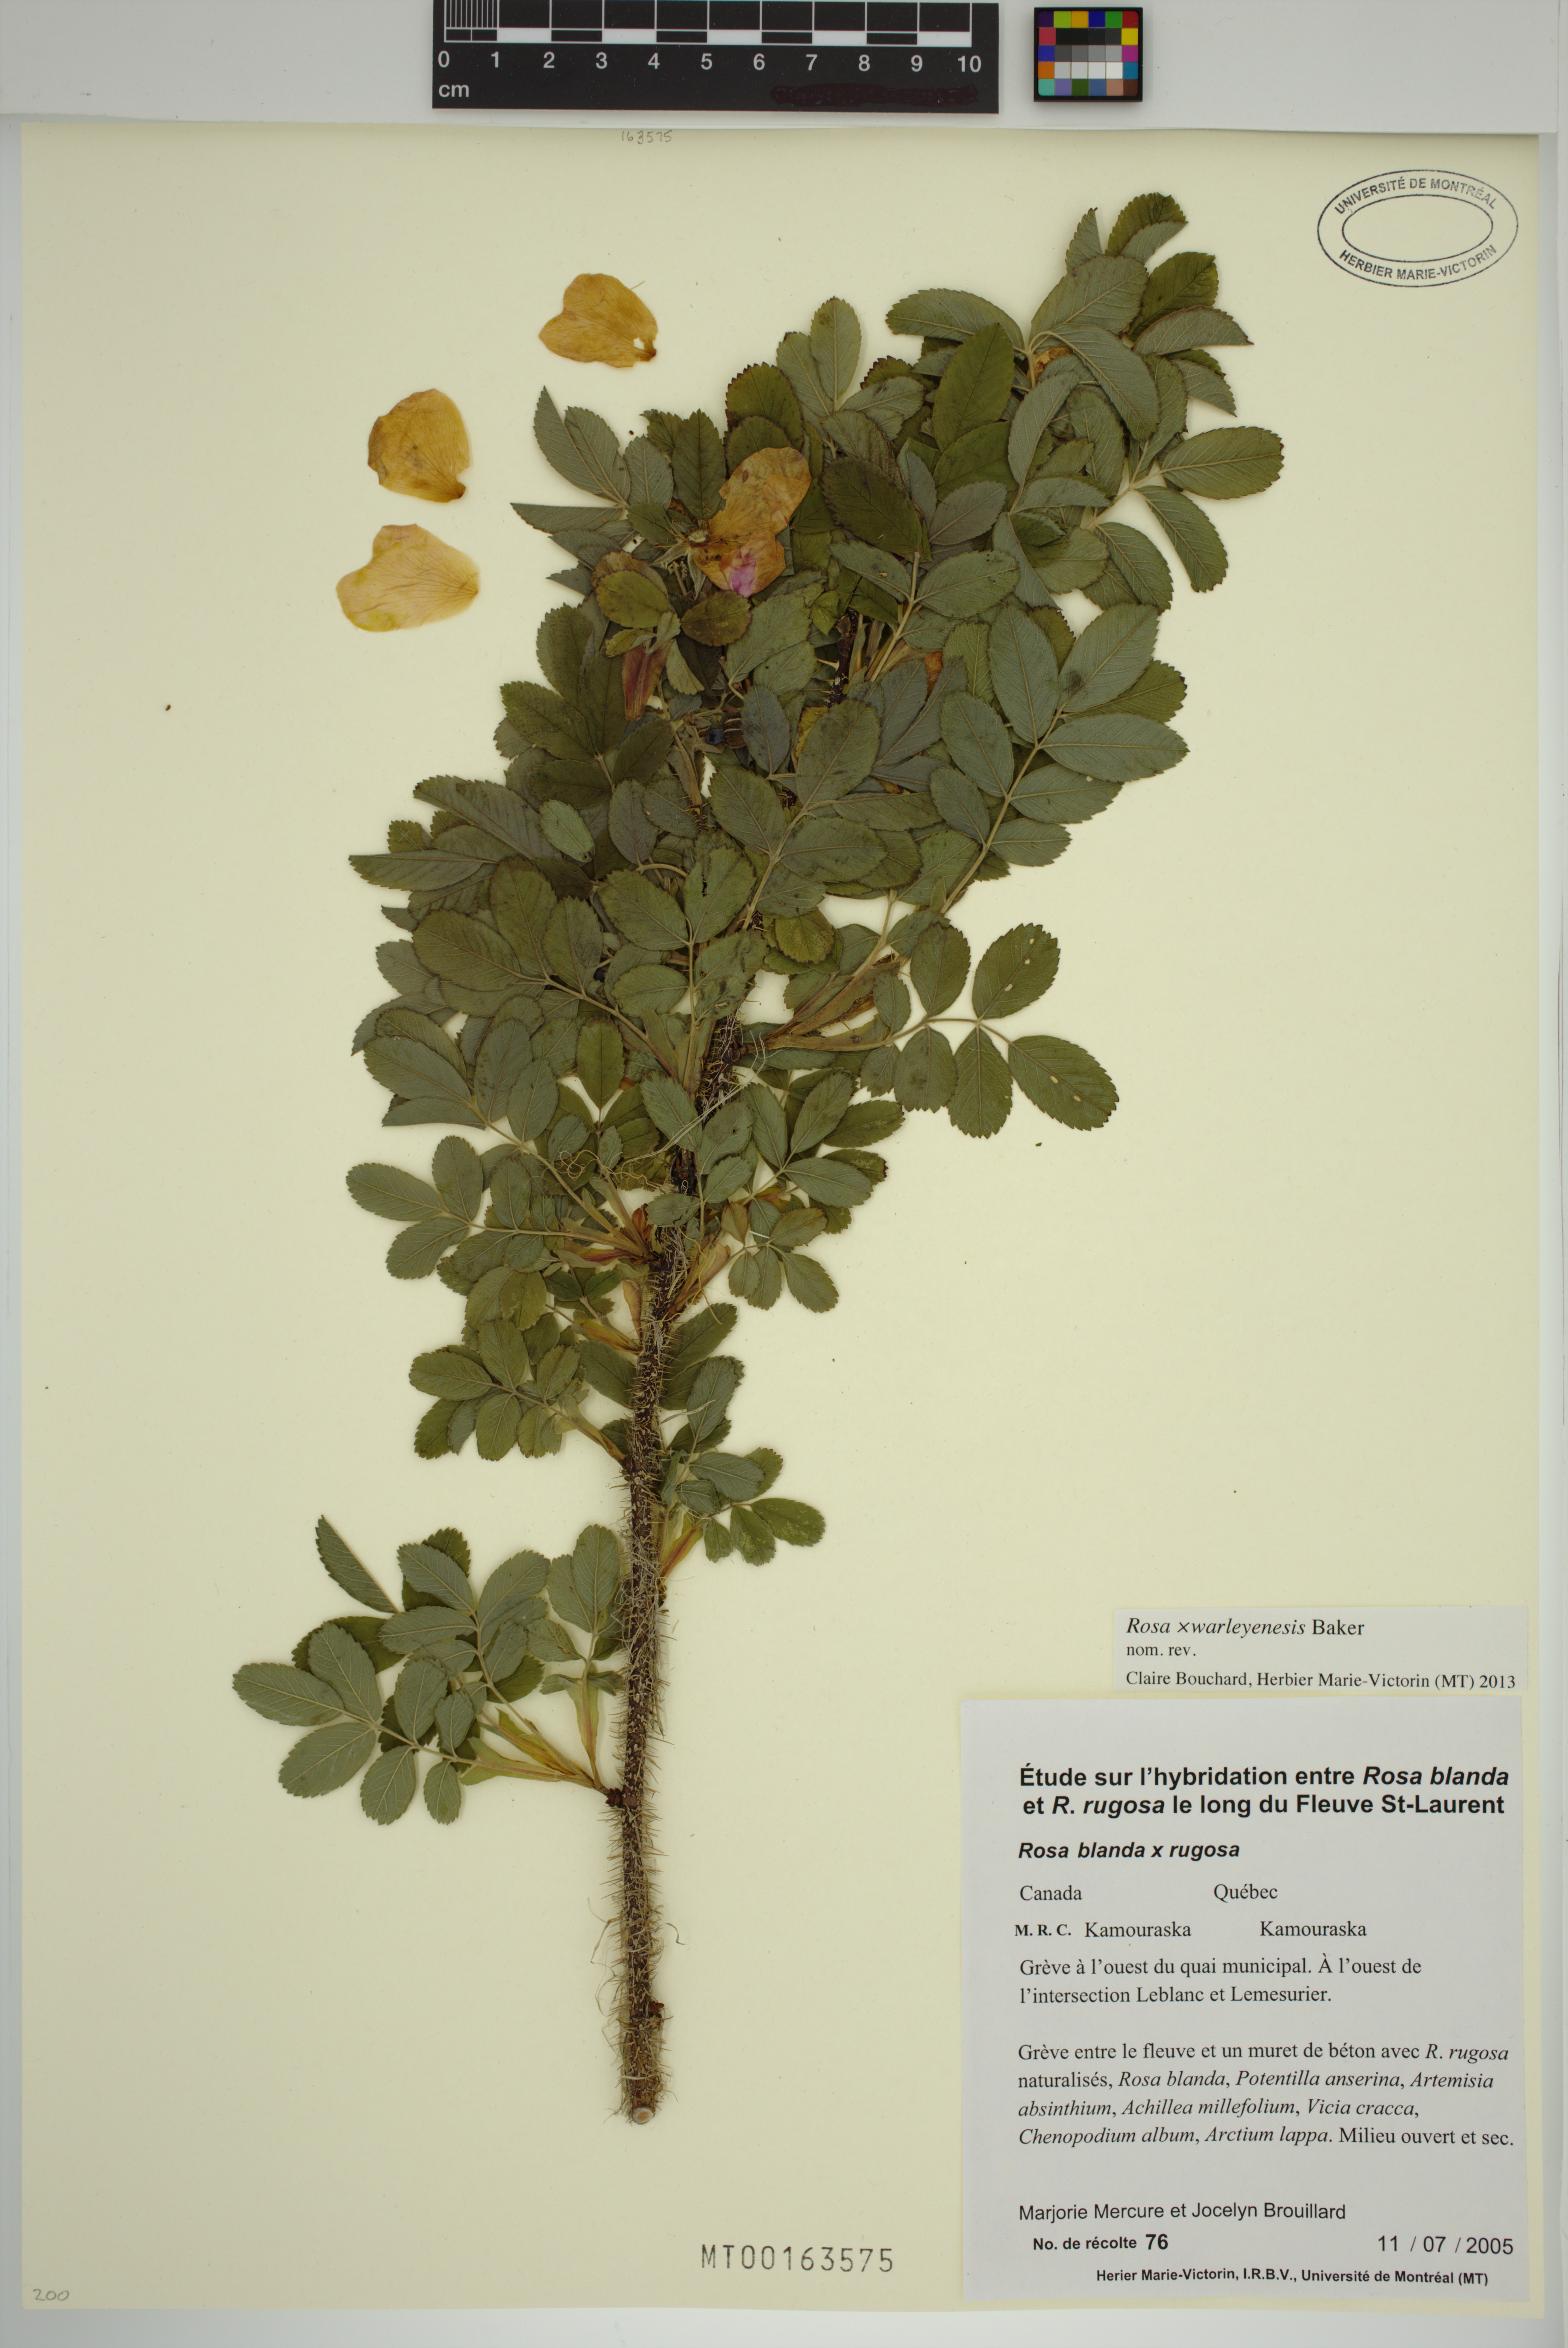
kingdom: Plantae
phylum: Tracheophyta
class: Magnoliopsida
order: Rosales
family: Rosaceae
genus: Rosa
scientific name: Rosa warleyensis
